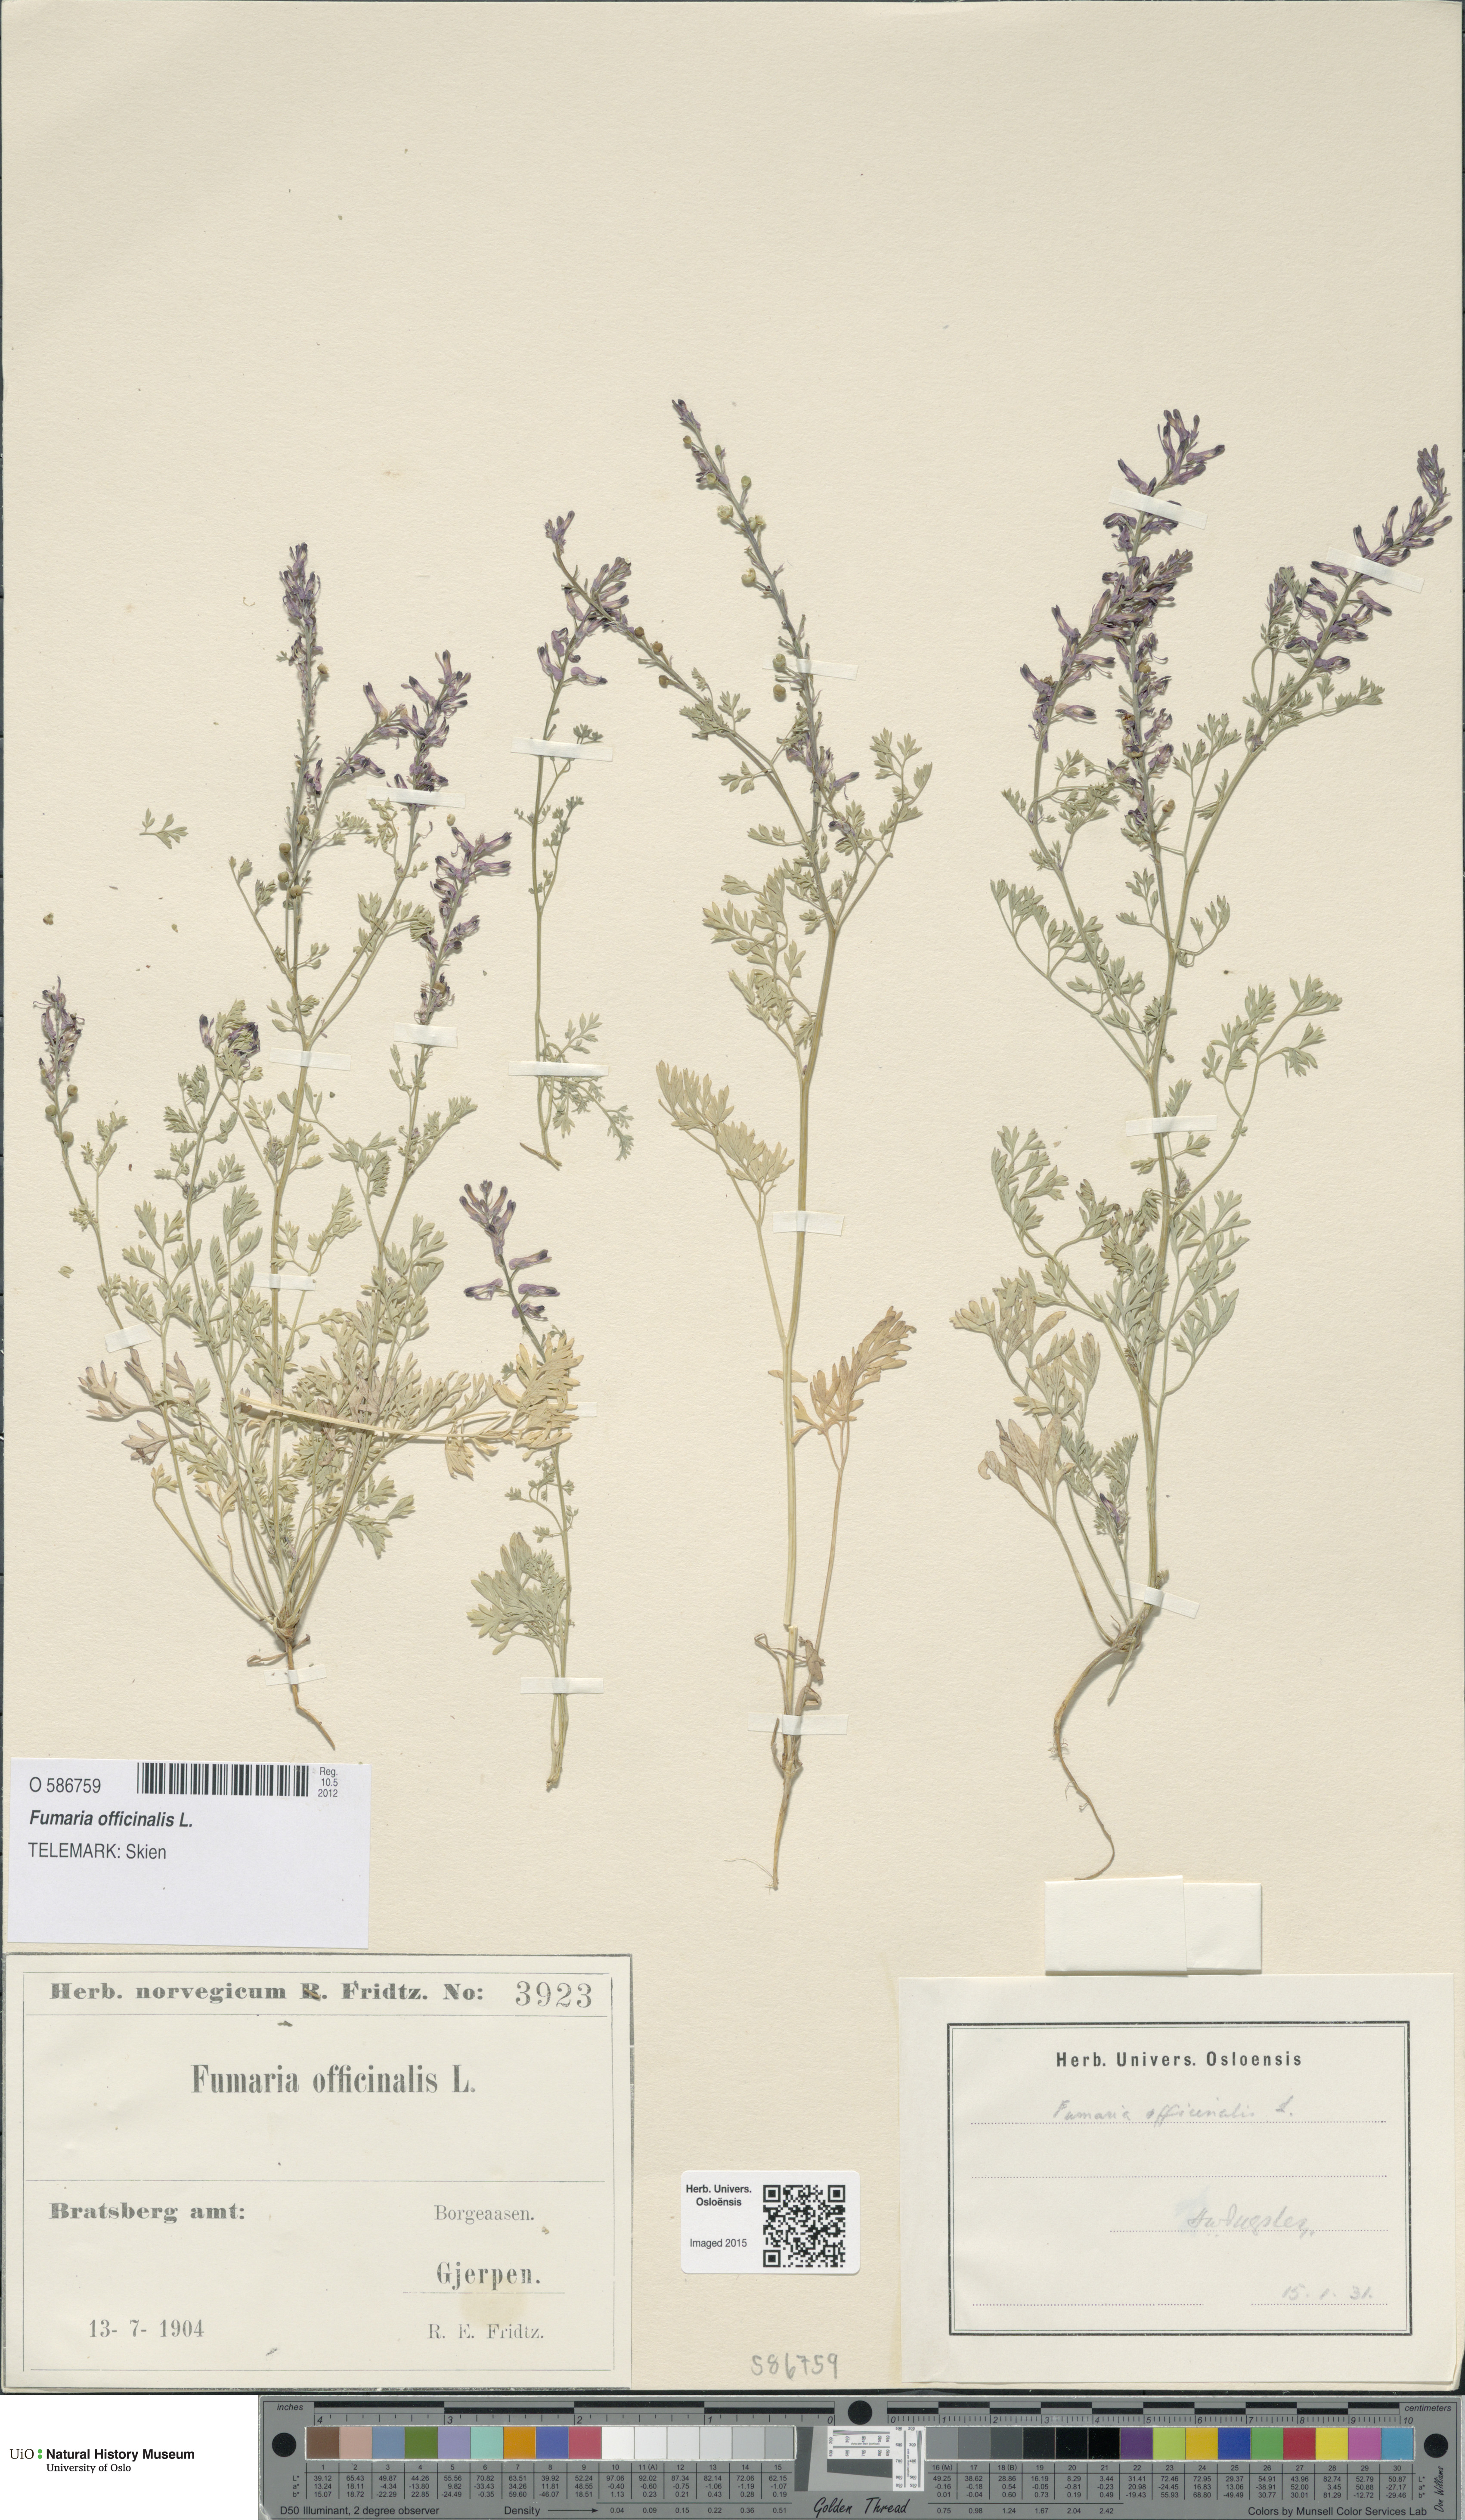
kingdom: Plantae
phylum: Tracheophyta
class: Magnoliopsida
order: Ranunculales
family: Papaveraceae
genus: Fumaria
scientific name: Fumaria officinalis
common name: Common fumitory
